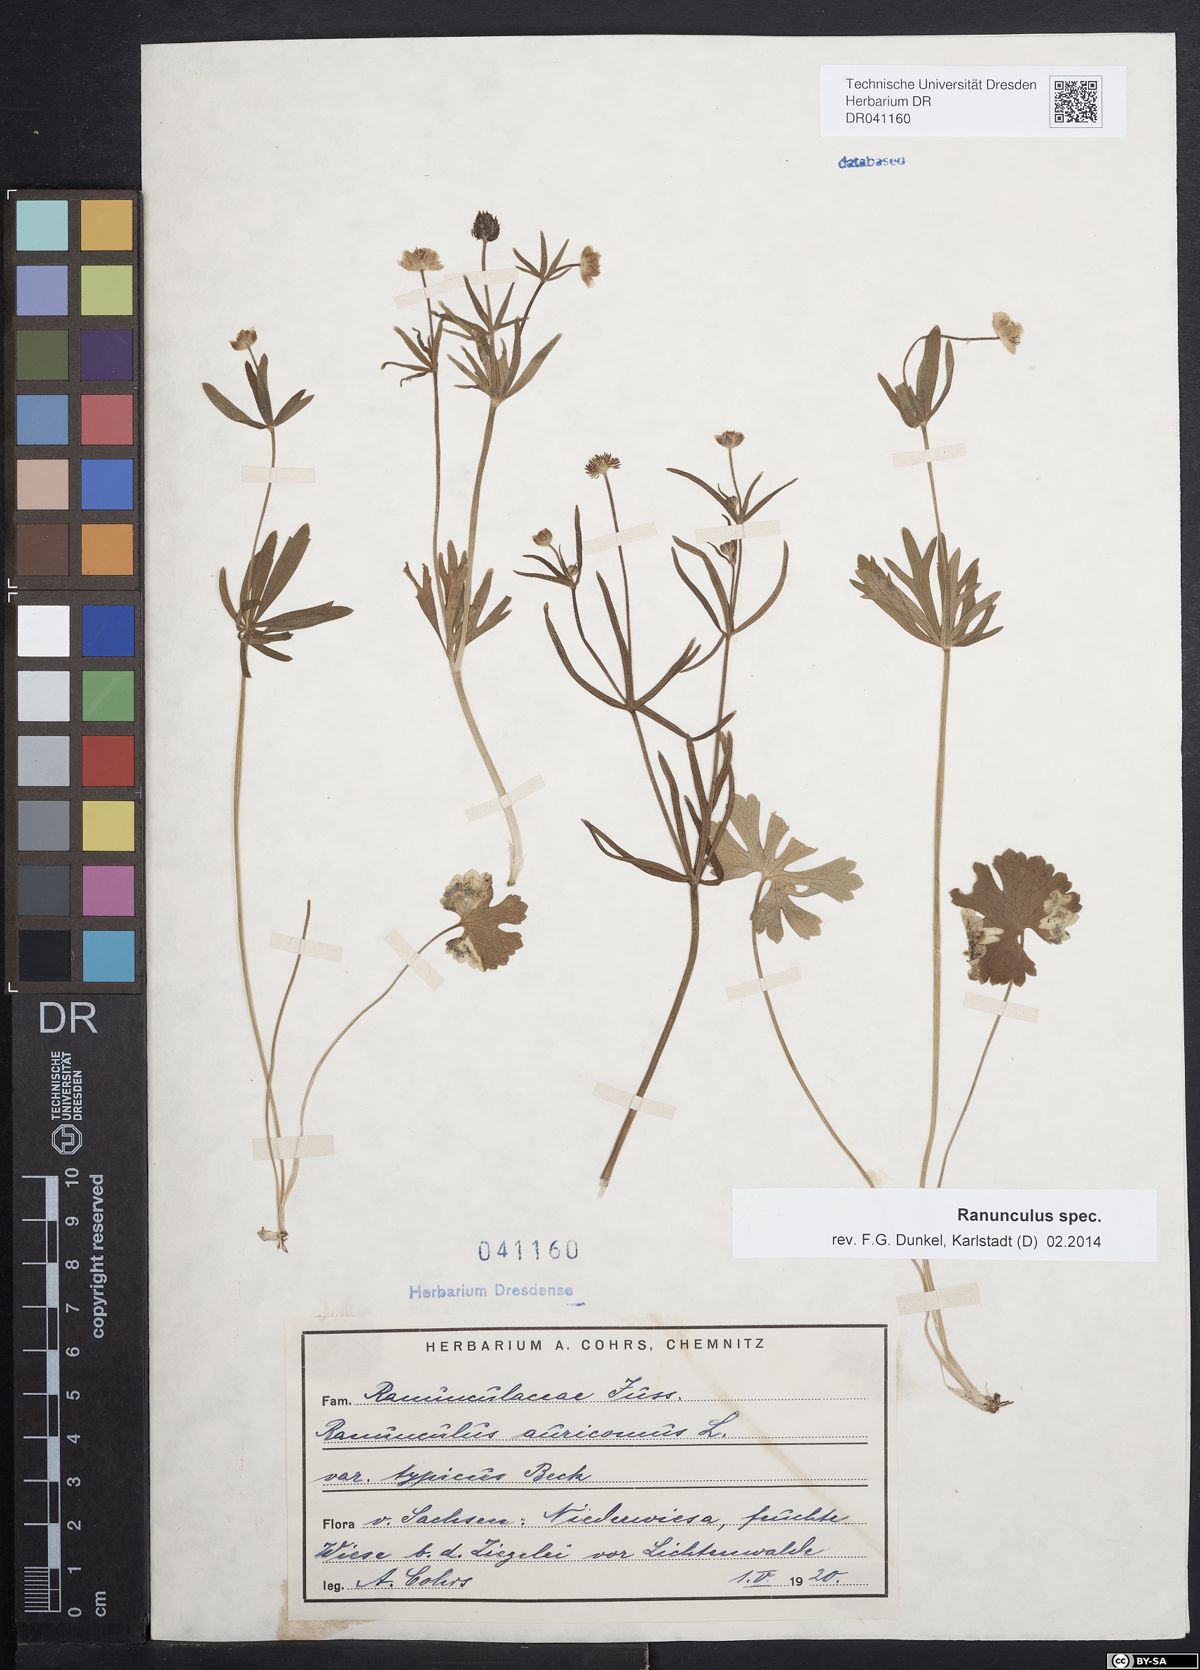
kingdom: Plantae
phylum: Tracheophyta
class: Magnoliopsida
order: Ranunculales
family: Ranunculaceae
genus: Ranunculus
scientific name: Ranunculus auricomus
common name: Goldilocks buttercup
